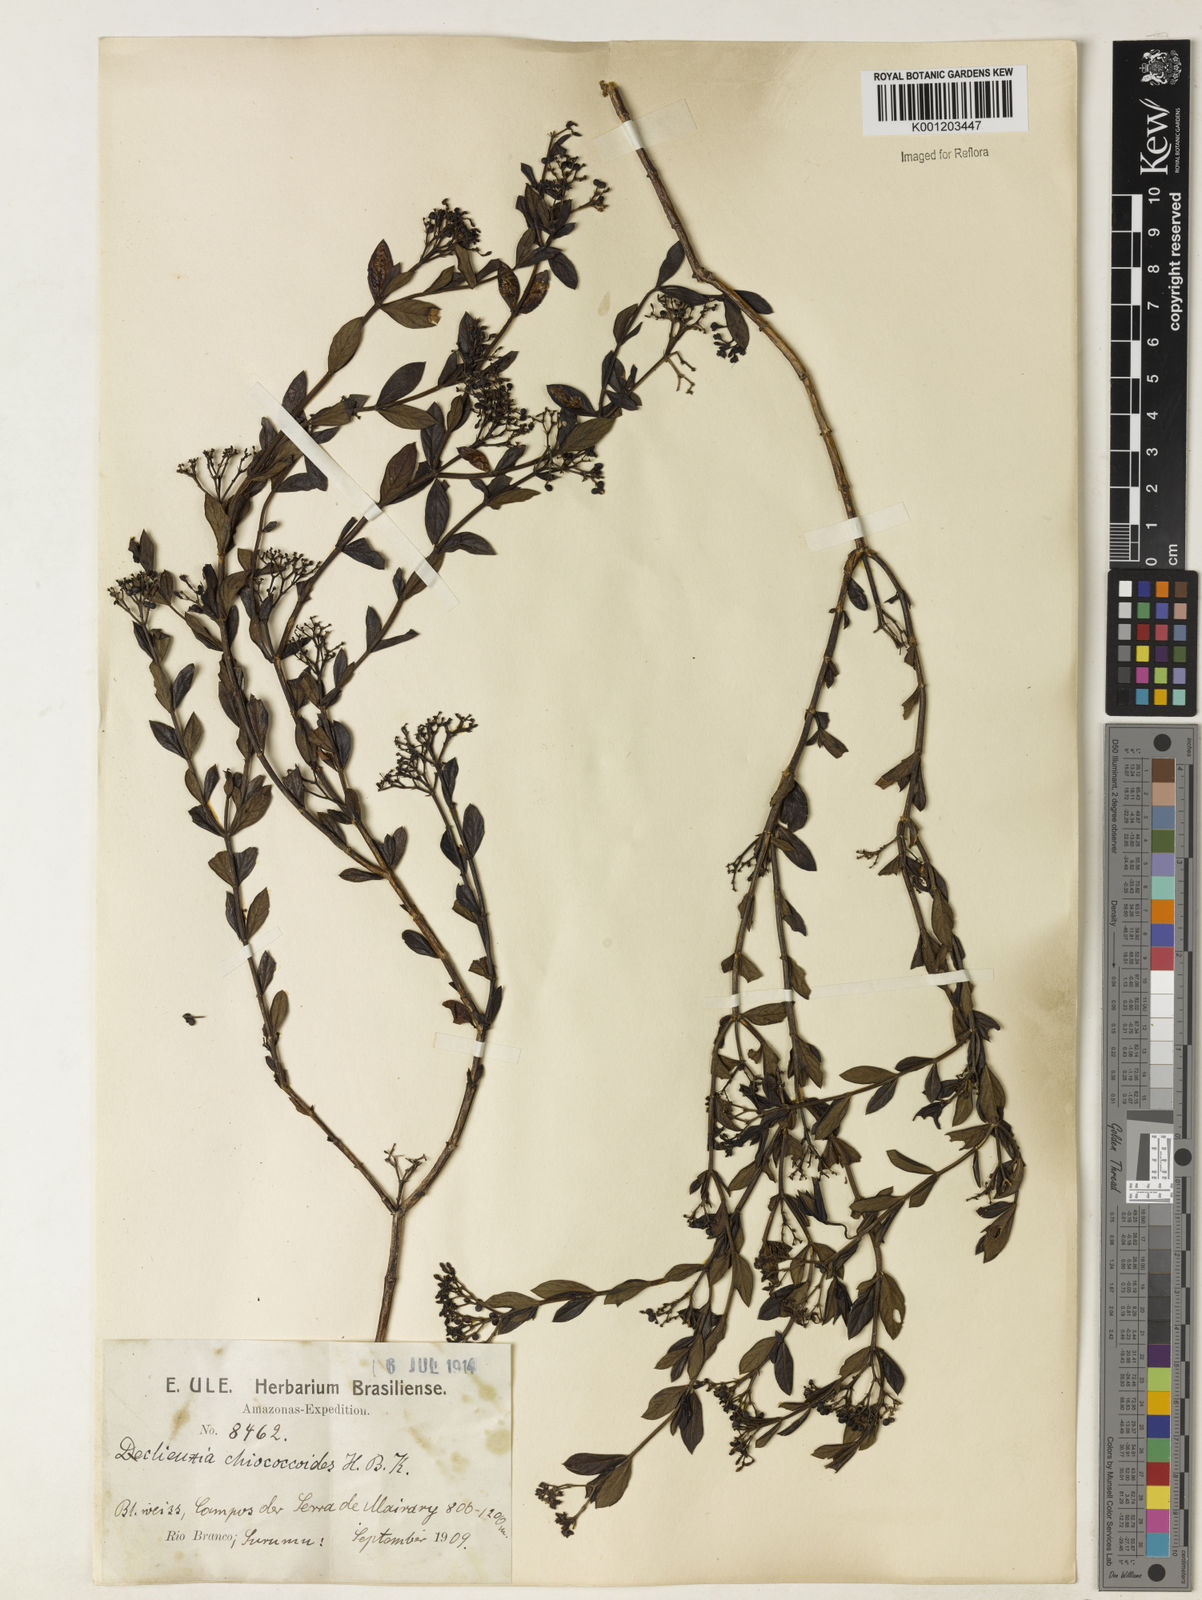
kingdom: Plantae
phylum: Tracheophyta
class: Magnoliopsida
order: Gentianales
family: Rubiaceae
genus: Declieuxia
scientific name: Declieuxia fruticosa
